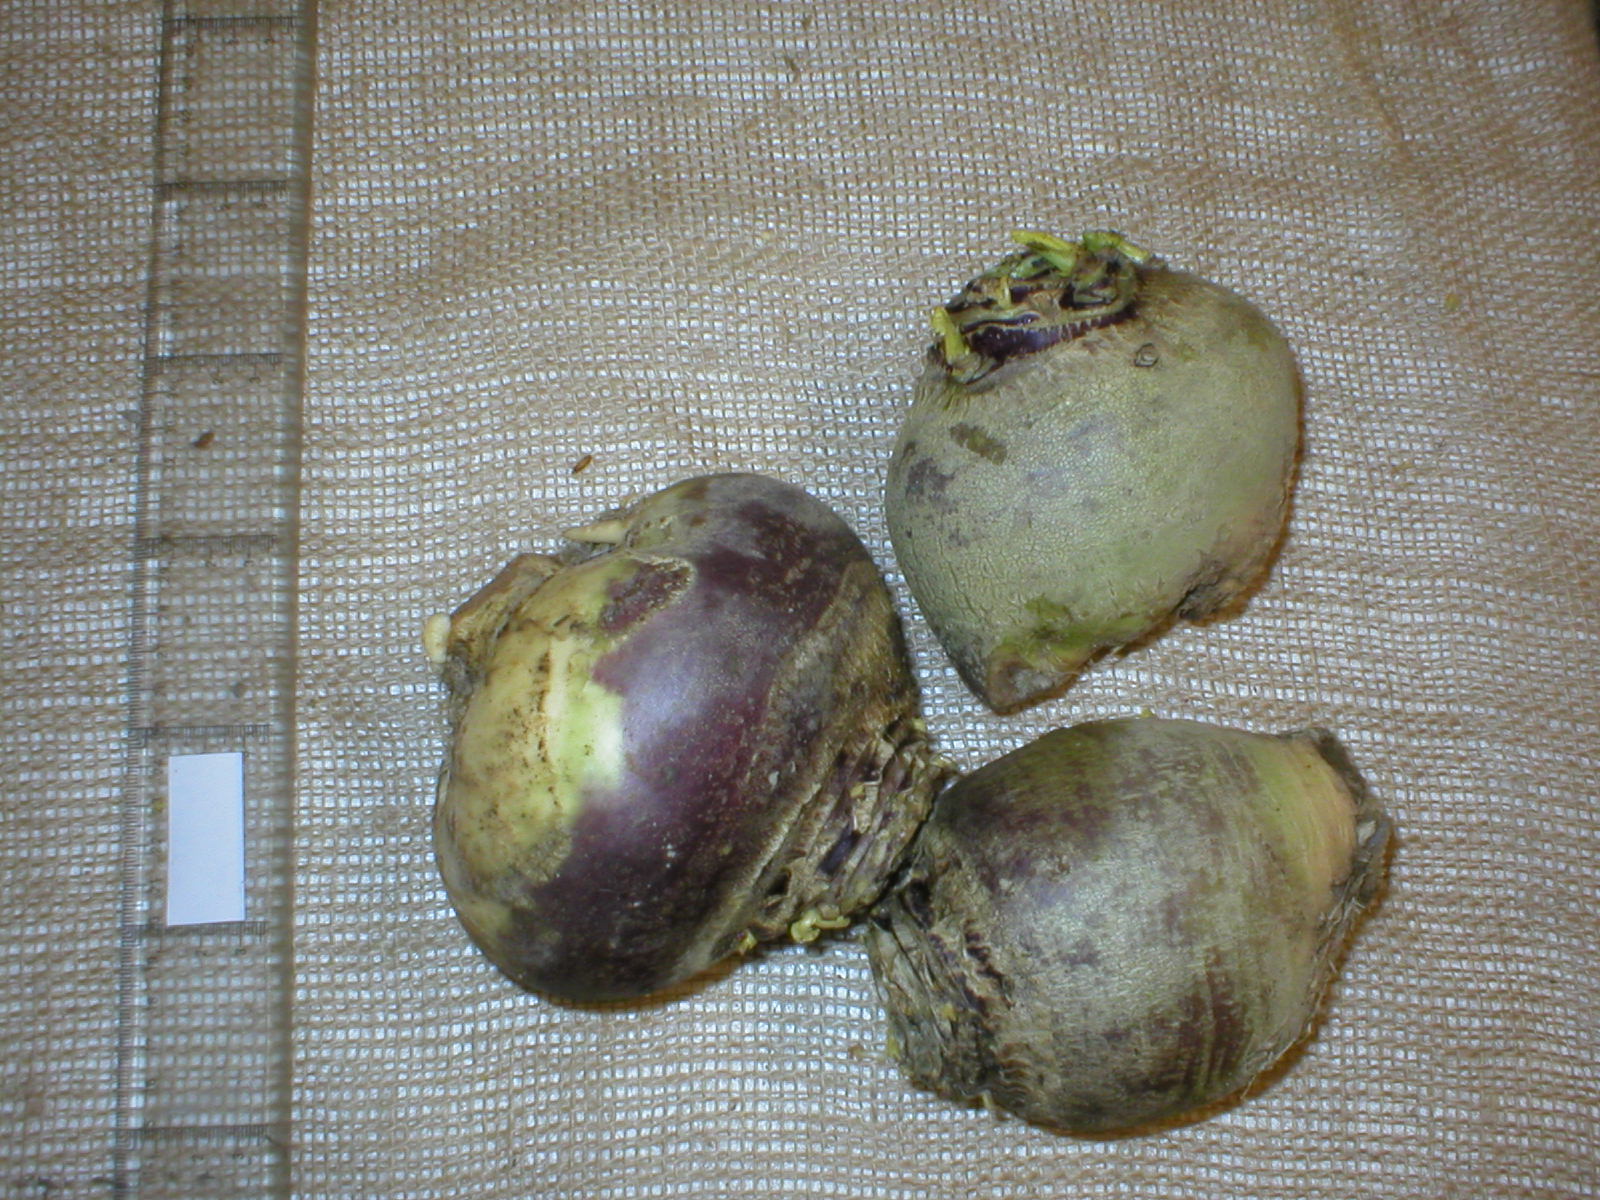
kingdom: Plantae
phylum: Tracheophyta
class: Magnoliopsida
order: Brassicales
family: Brassicaceae
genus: Brassica
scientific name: Brassica napus
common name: Rape
